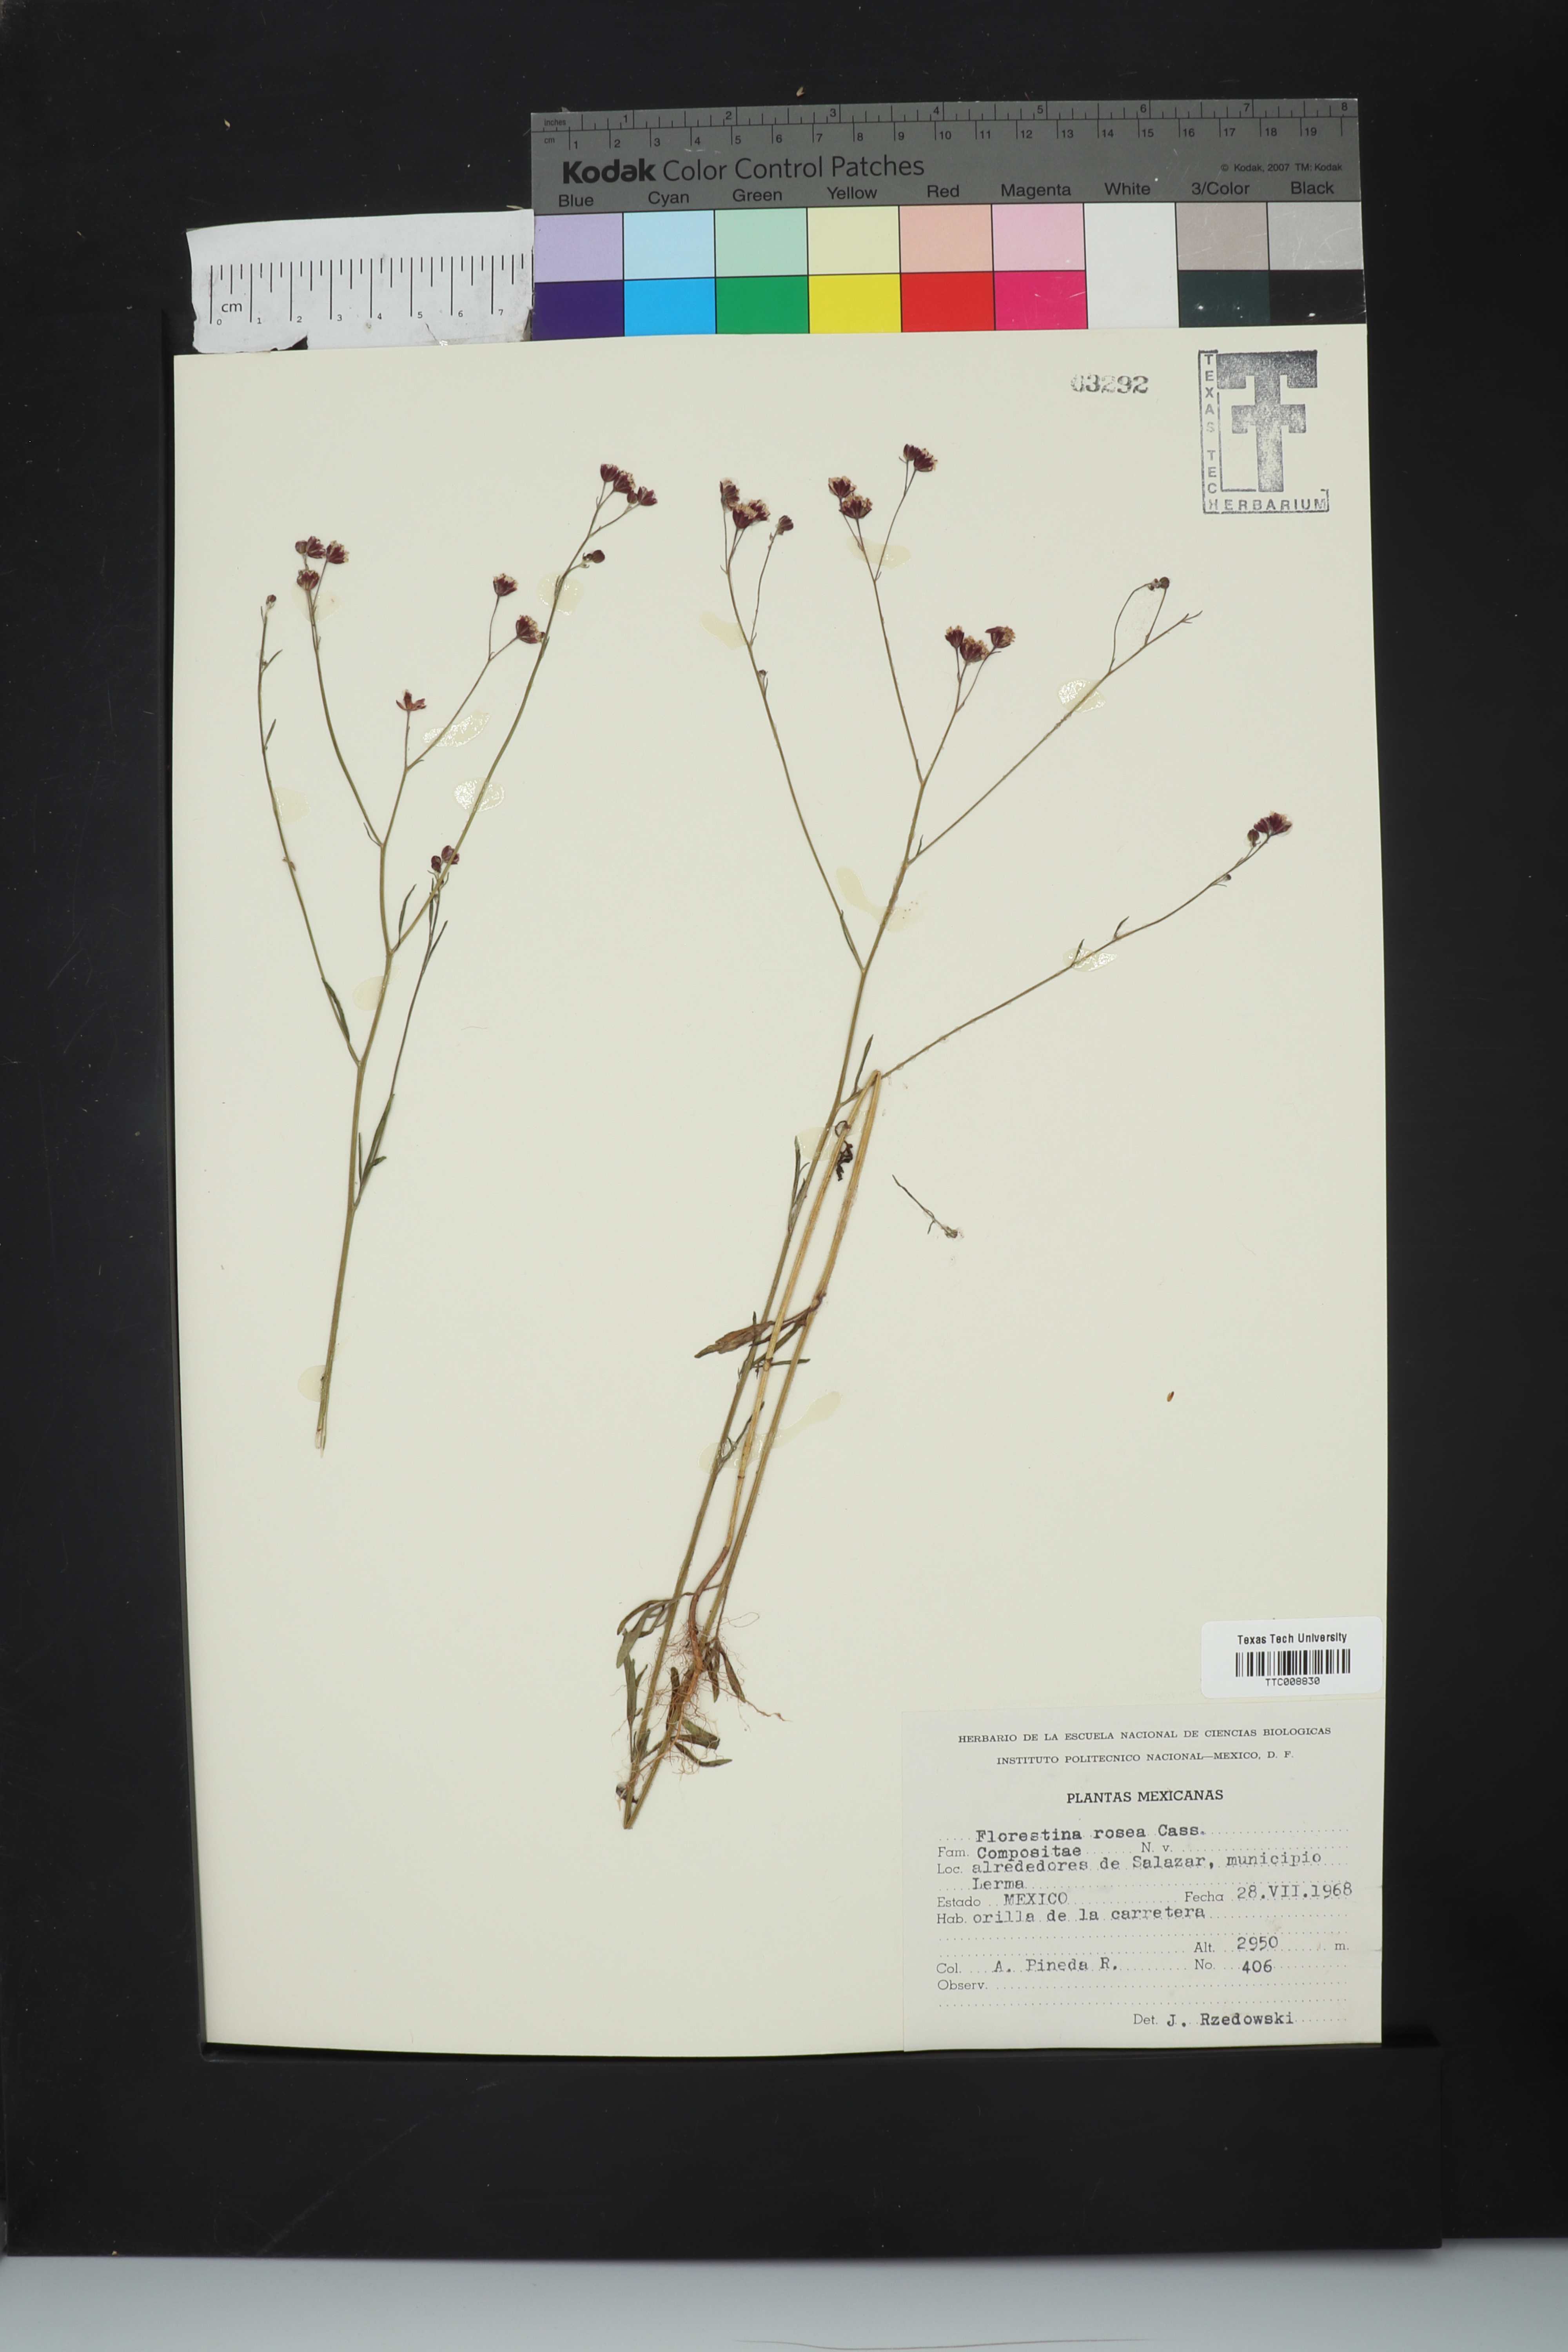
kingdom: Plantae
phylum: Tracheophyta
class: Magnoliopsida
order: Asterales
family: Asteraceae
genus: Florestina
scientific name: Florestina
